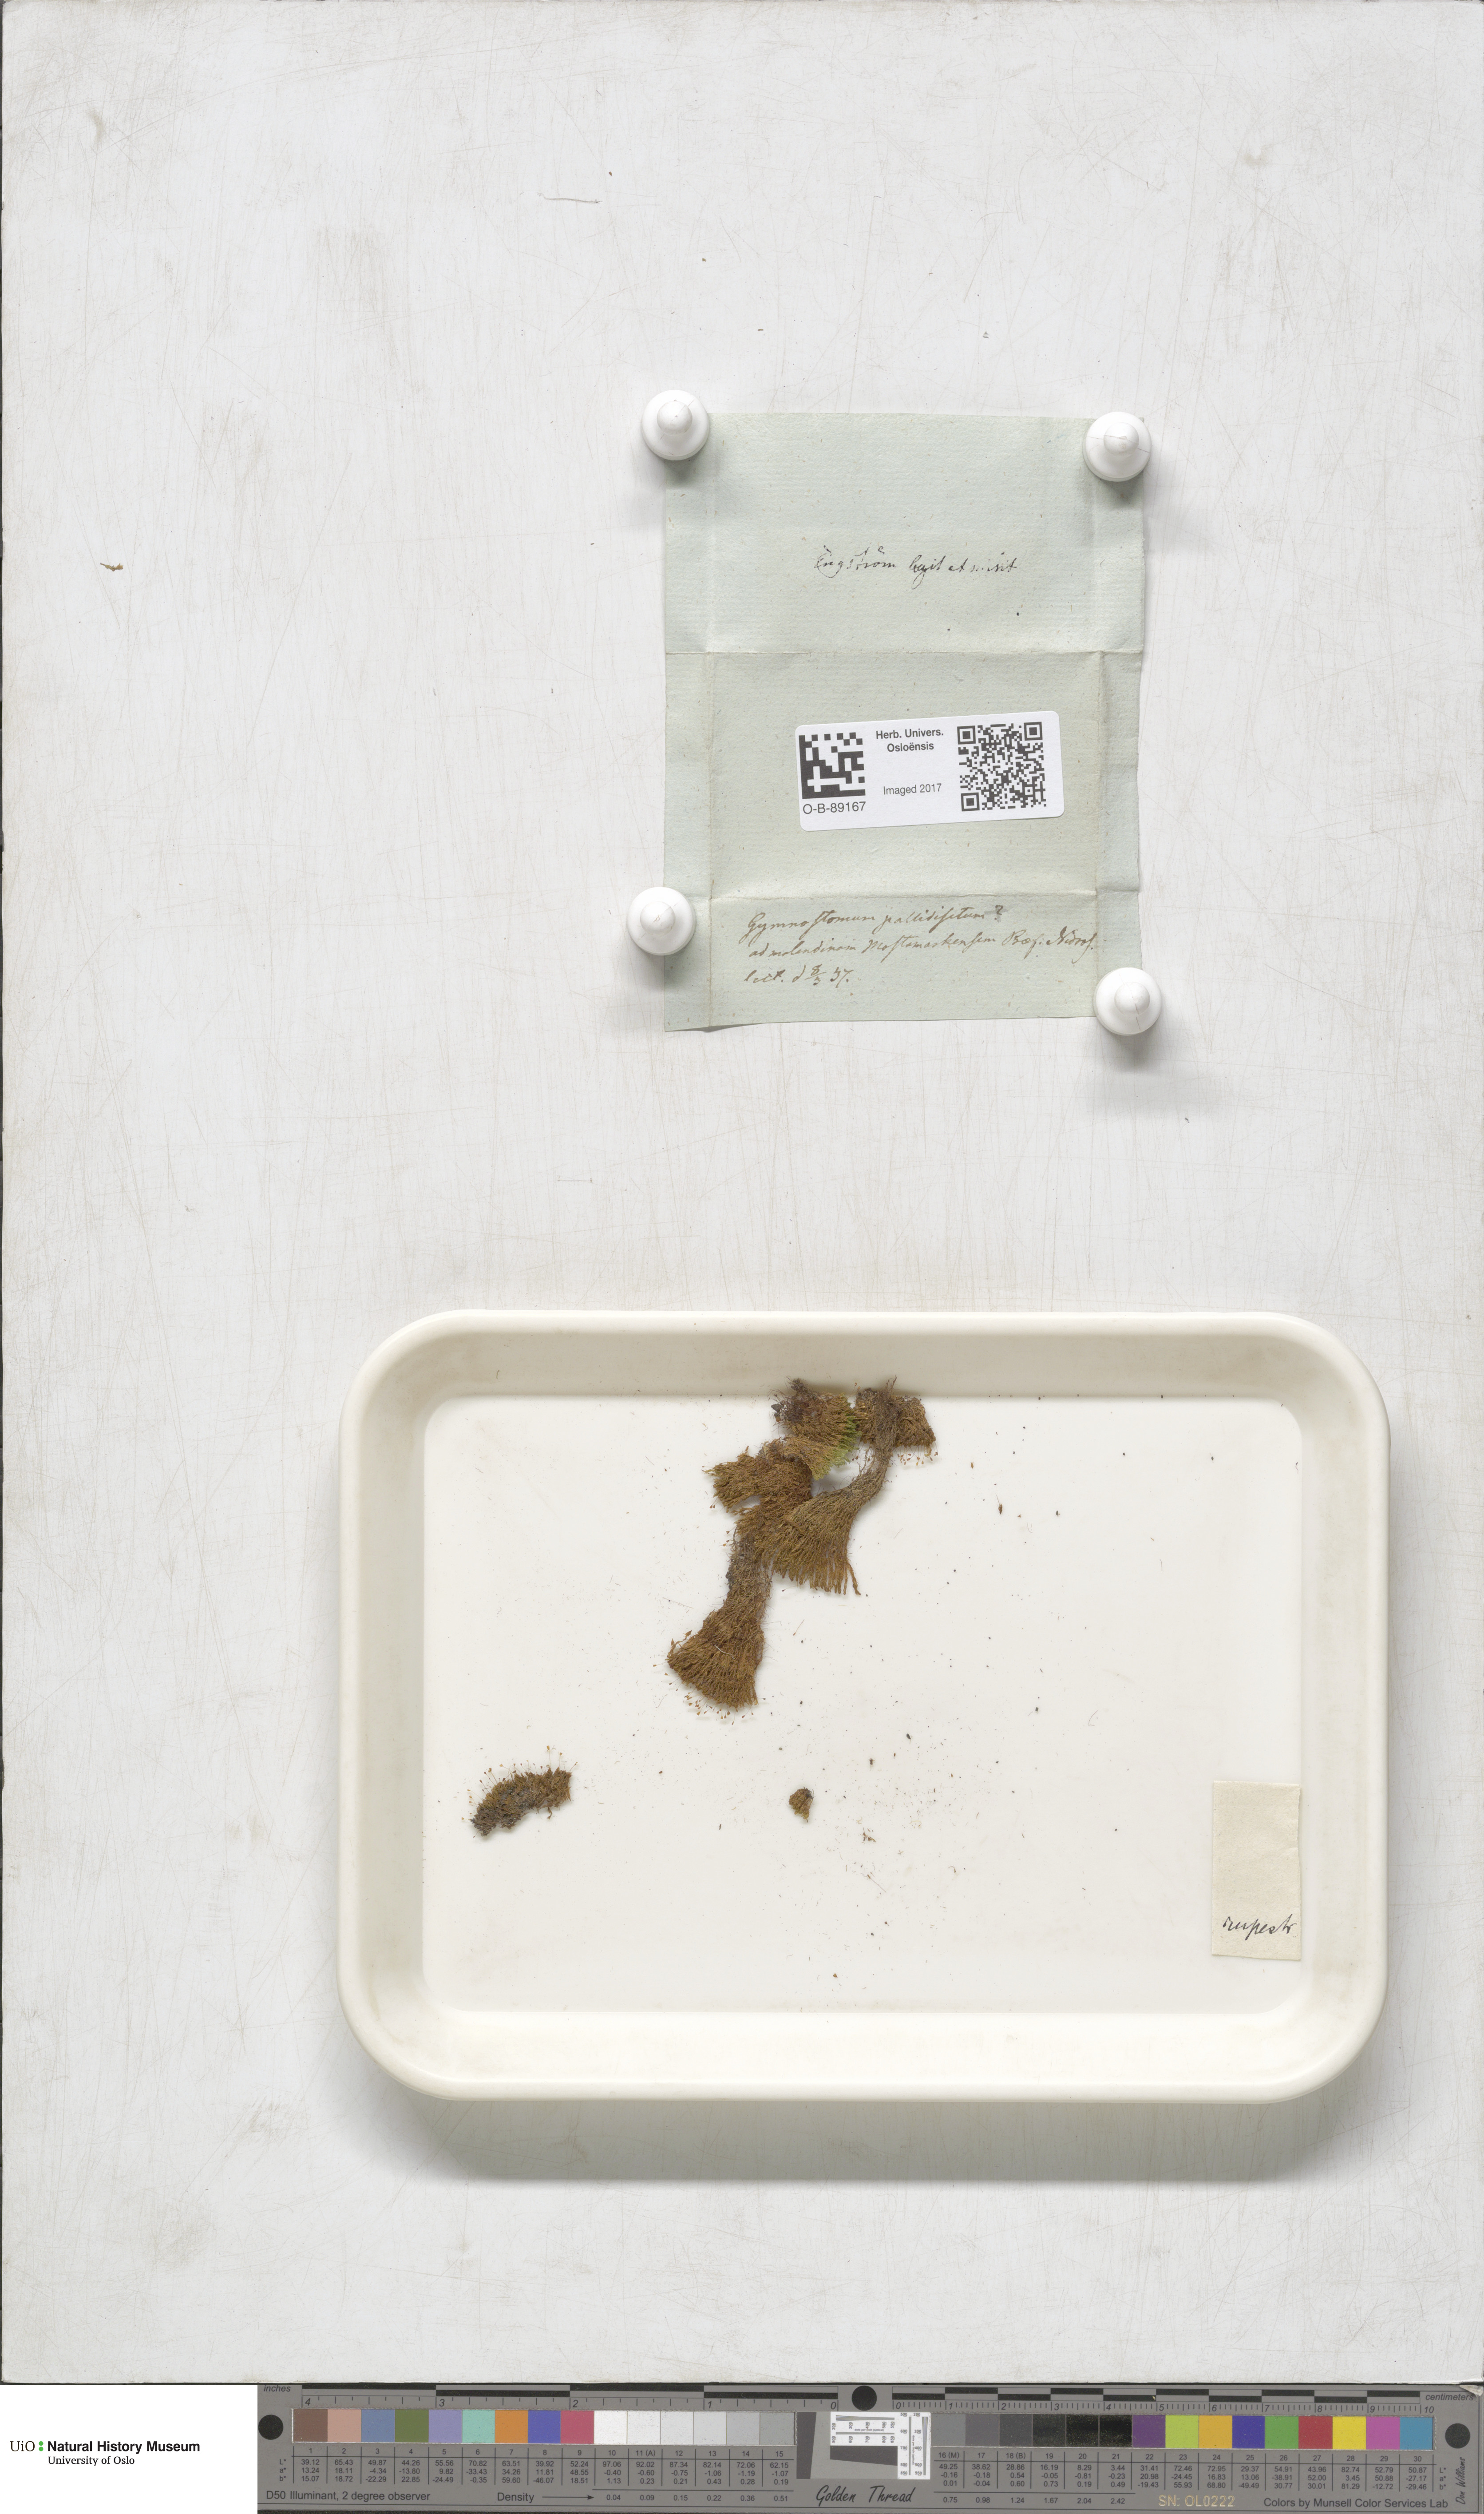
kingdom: Plantae
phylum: Bryophyta
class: Bryopsida
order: Pottiales
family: Pottiaceae
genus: Gymnostomum
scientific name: Gymnostomum aeruginosum
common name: Verdigris tufa-moss
